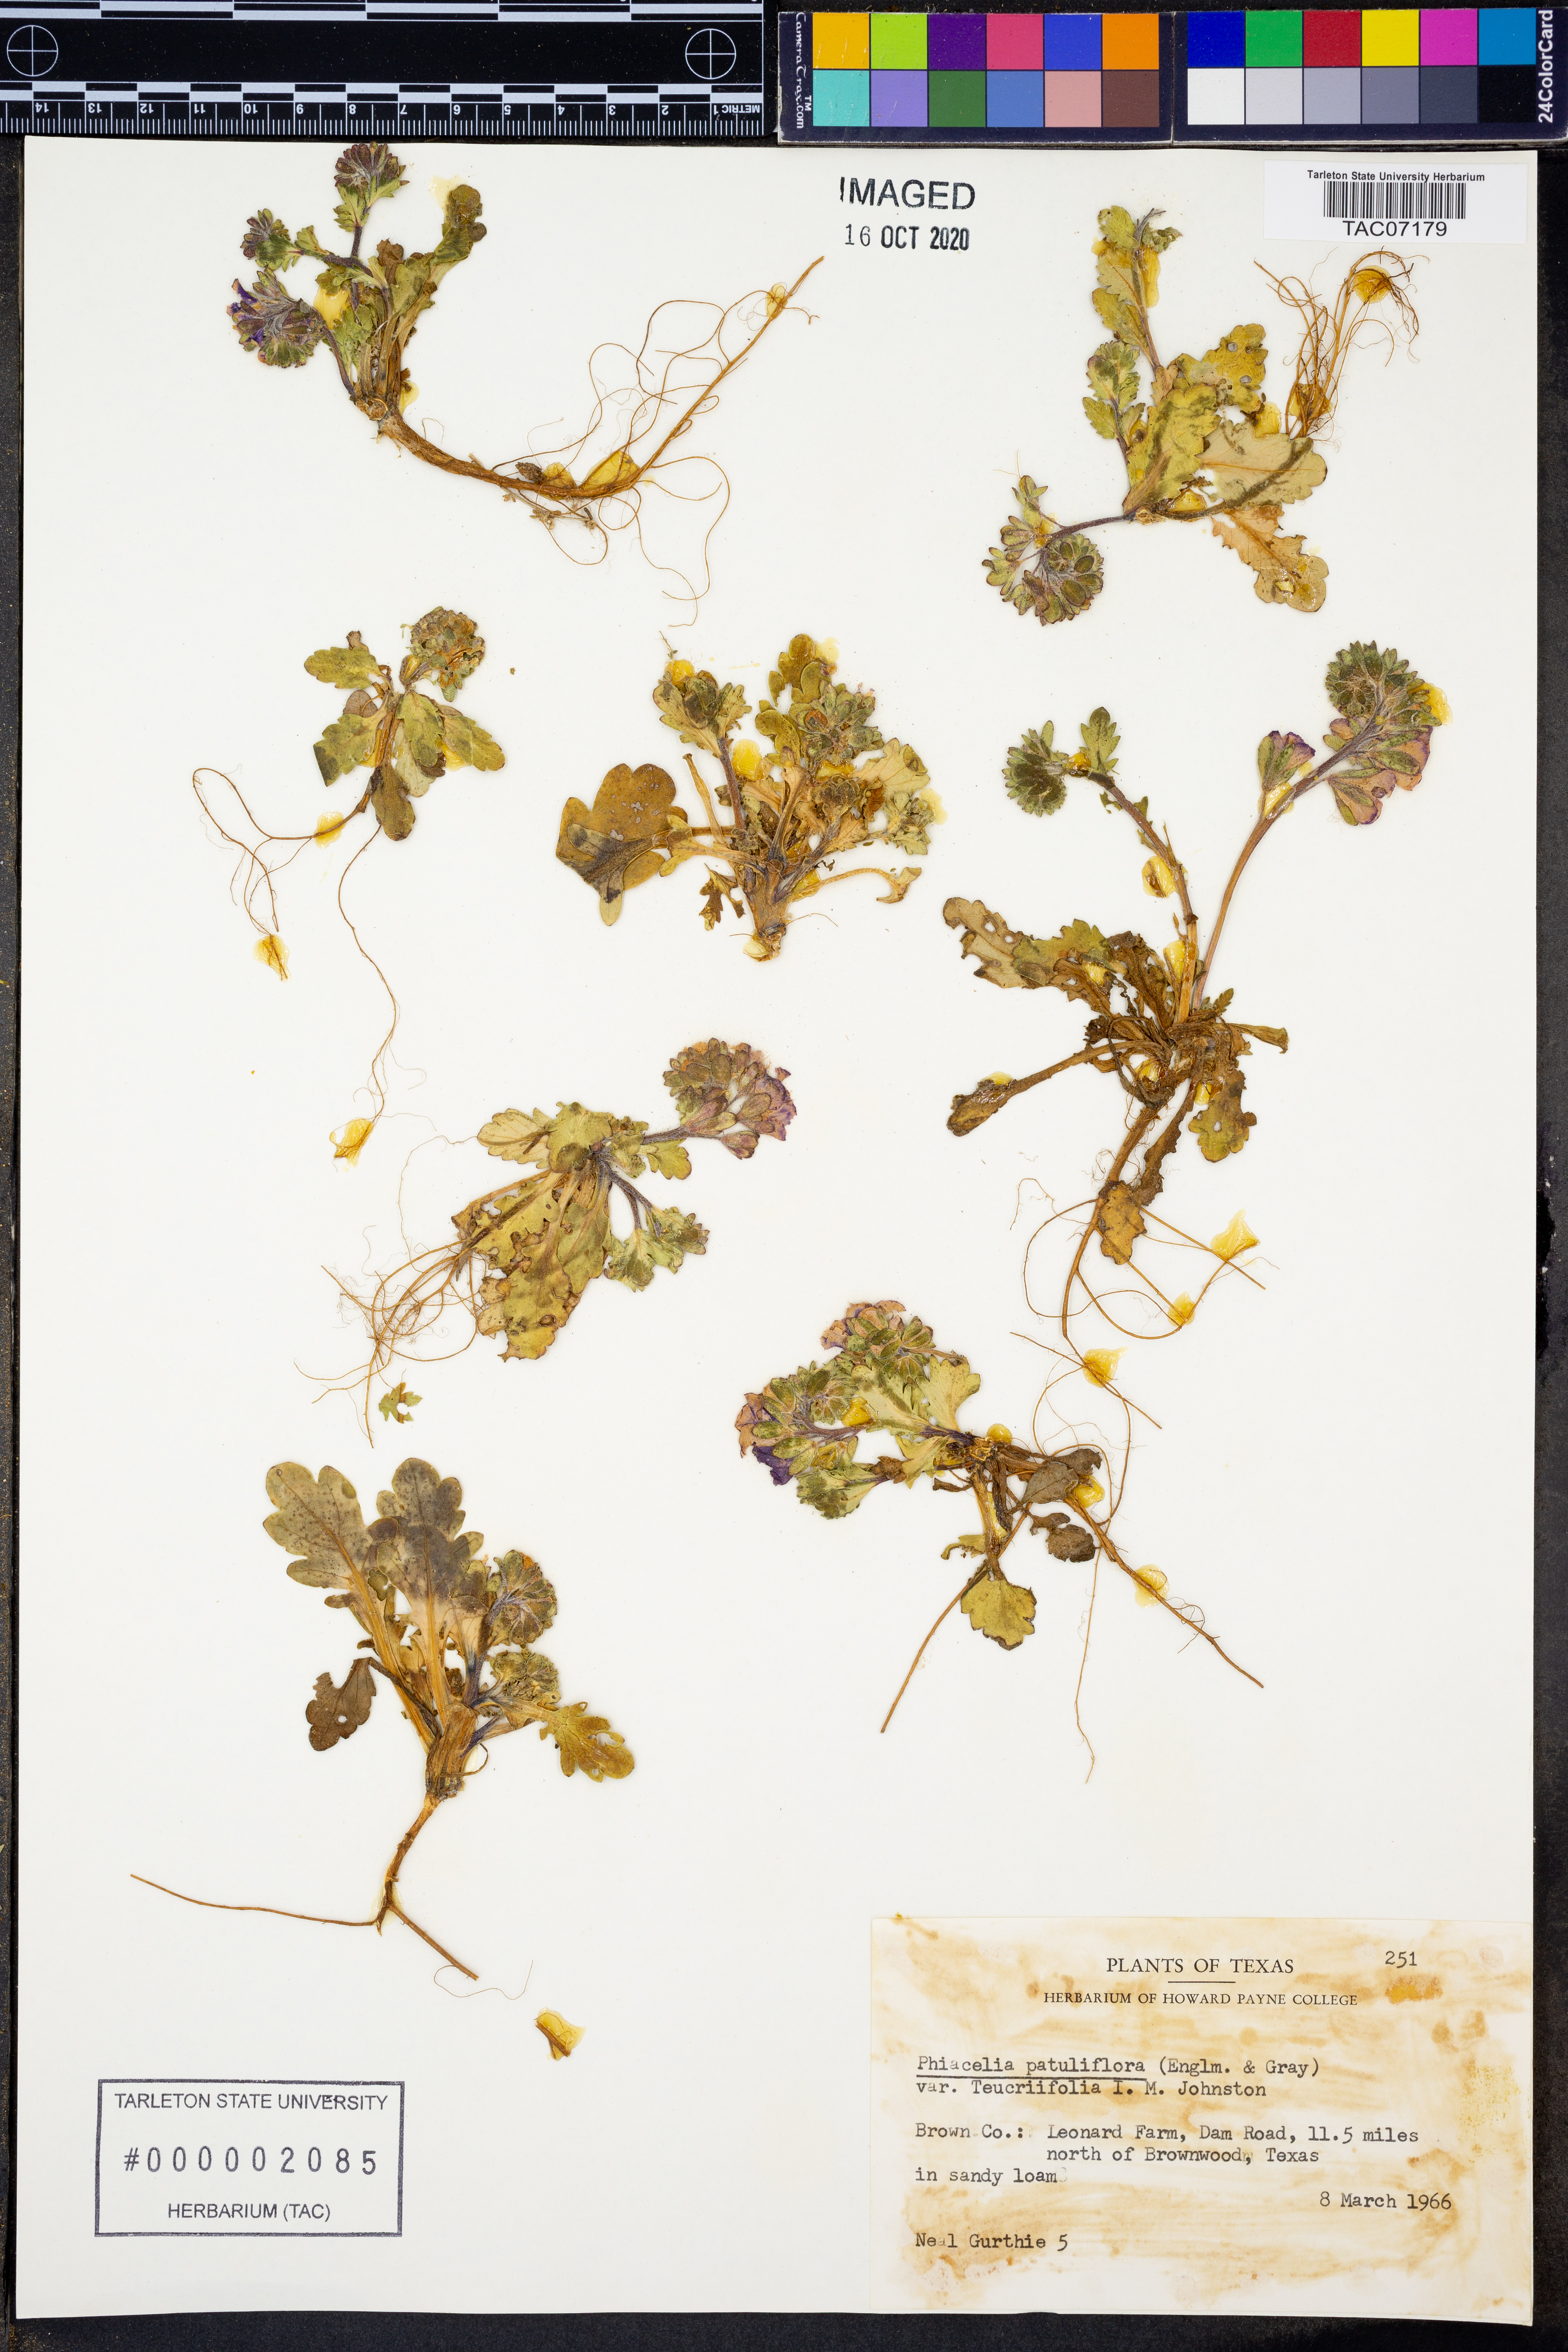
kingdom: Plantae
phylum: Tracheophyta
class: Magnoliopsida
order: Boraginales
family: Hydrophyllaceae
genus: Phacelia
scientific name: Phacelia patuliflora
